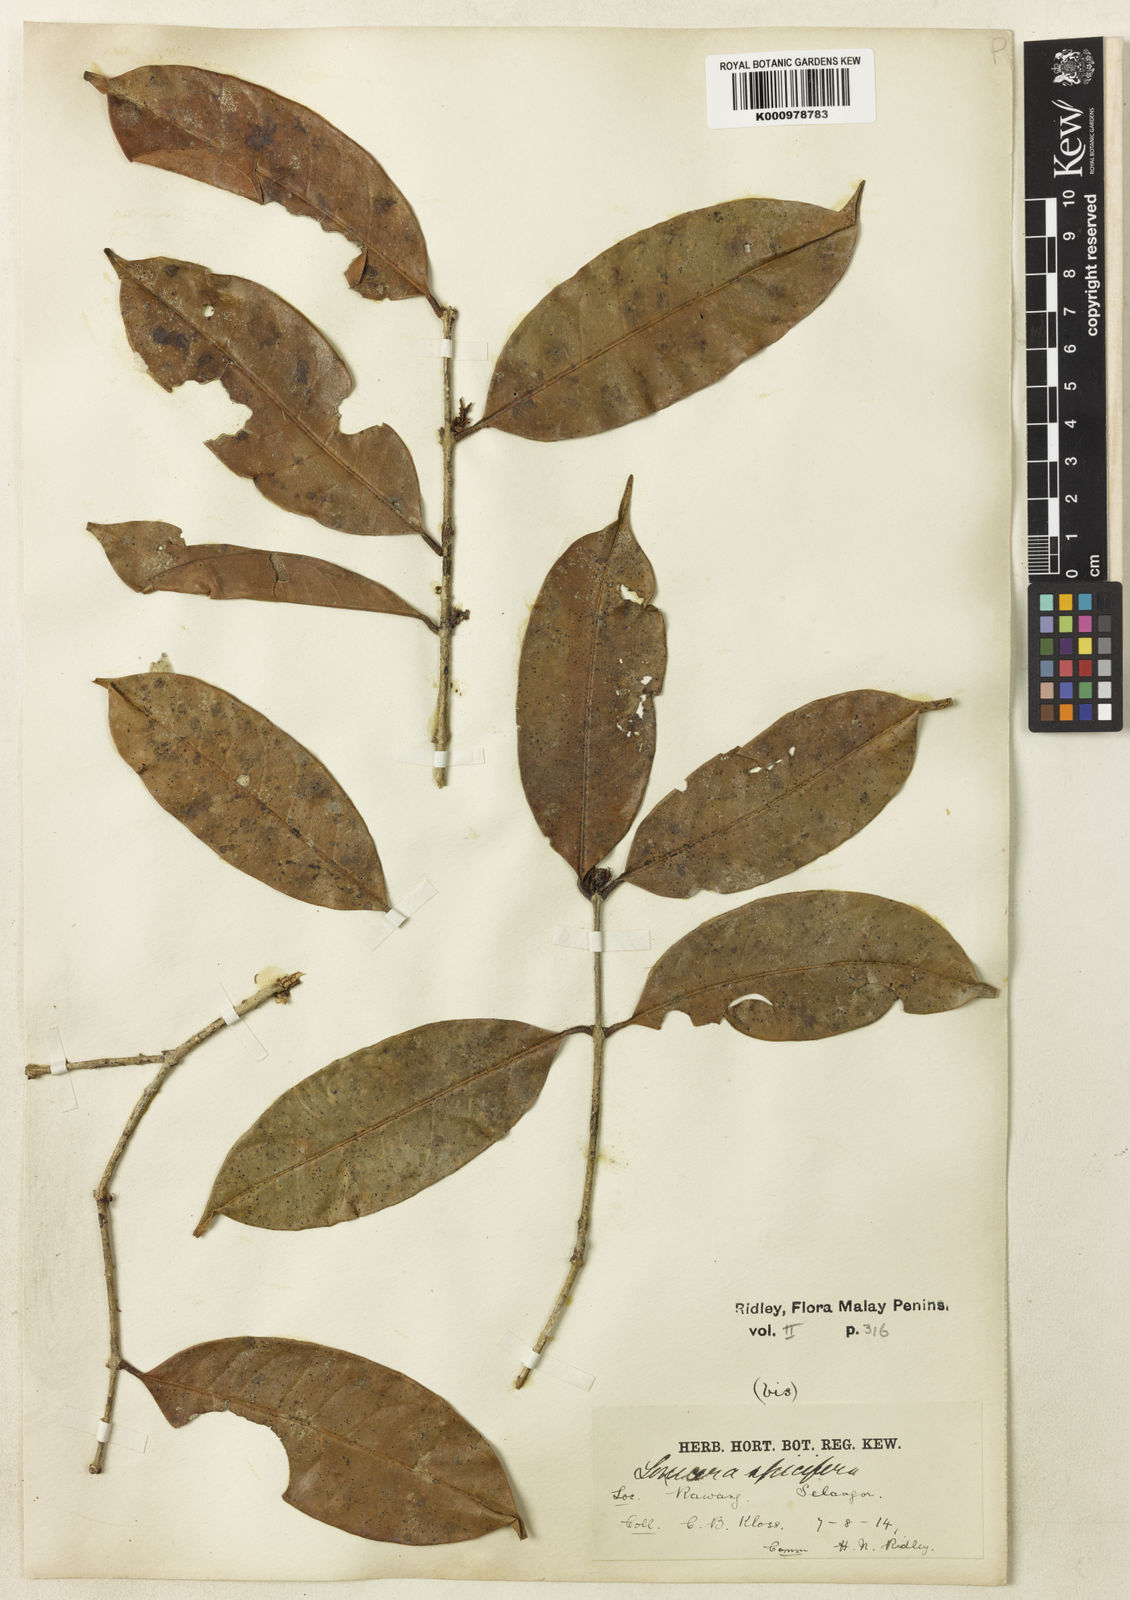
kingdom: Plantae
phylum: Tracheophyta
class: Magnoliopsida
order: Lamiales
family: Oleaceae
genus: Chionanthus
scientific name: Chionanthus
